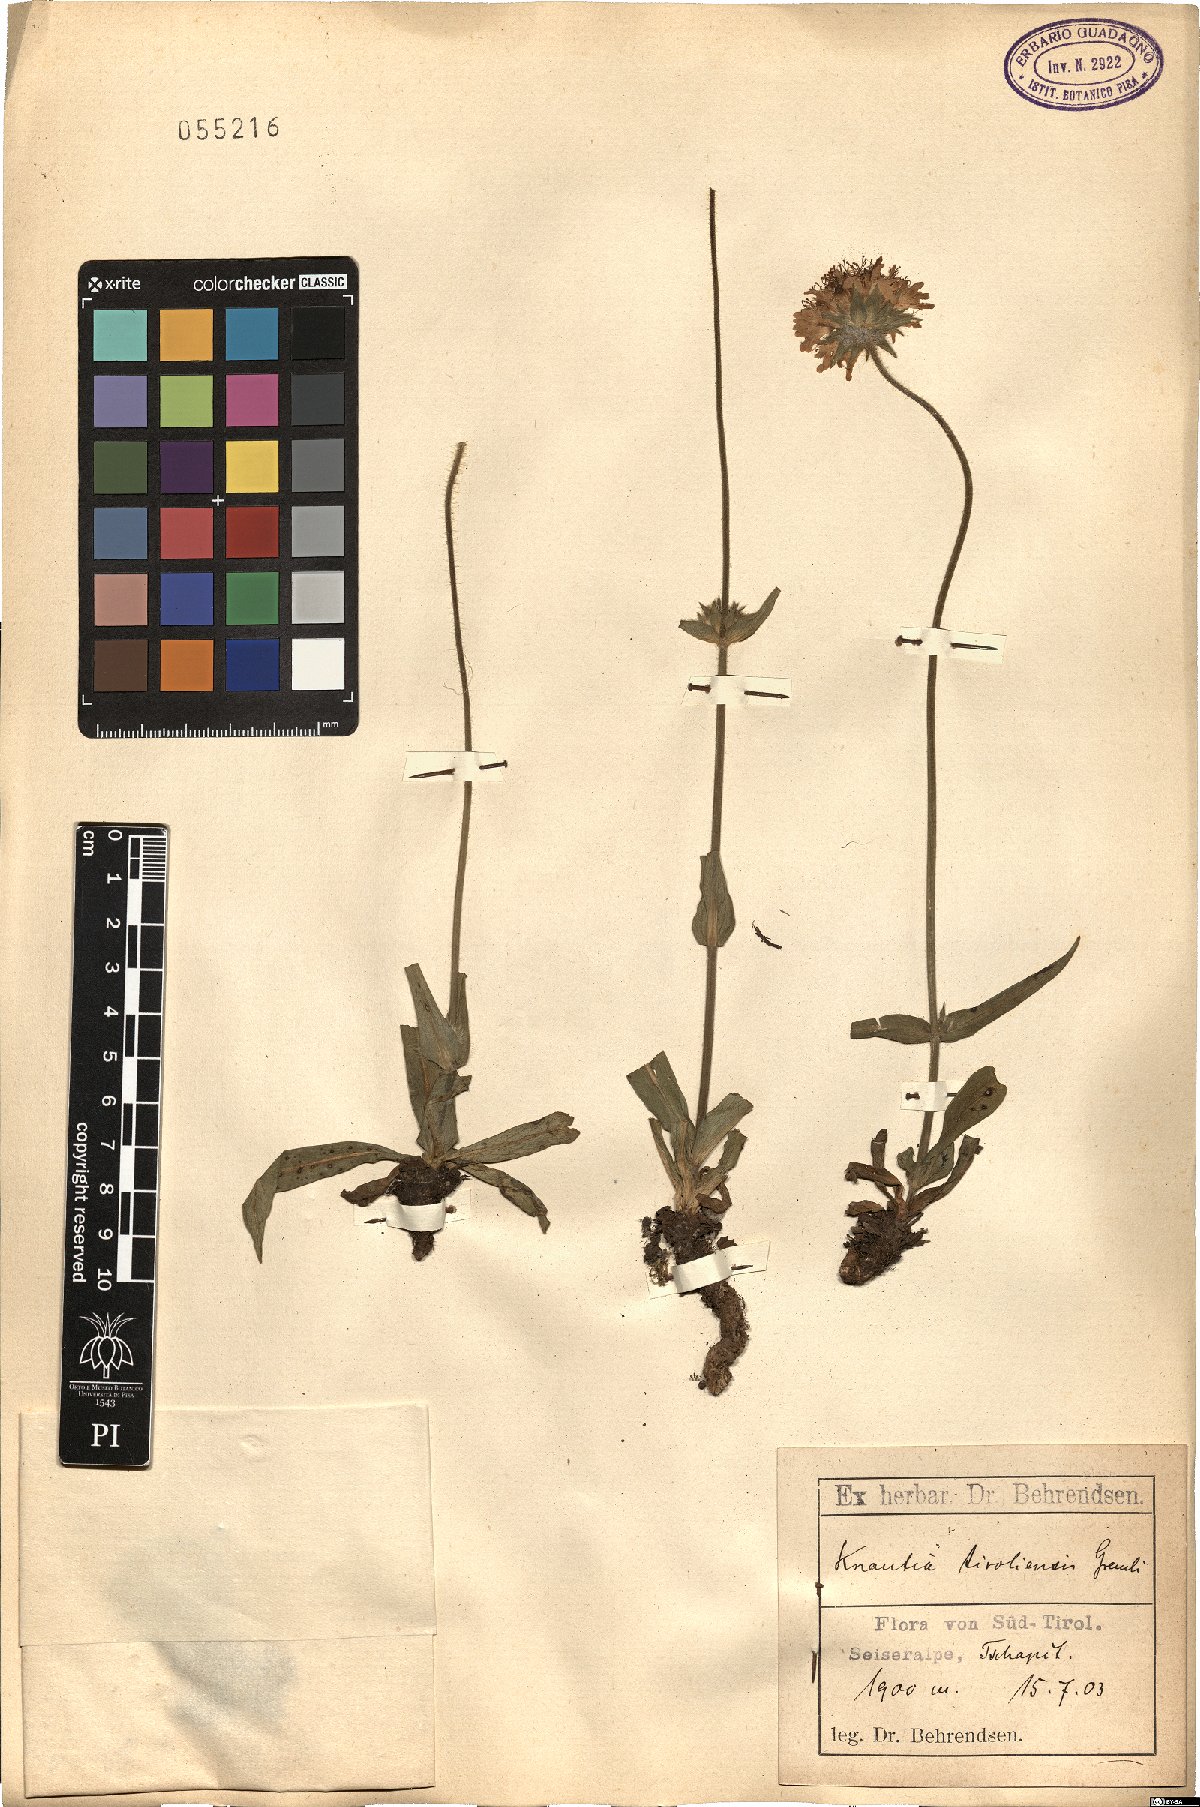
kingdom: Plantae
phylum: Tracheophyta
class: Magnoliopsida
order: Dipsacales
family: Caprifoliaceae
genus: Knautia
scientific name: Knautia
